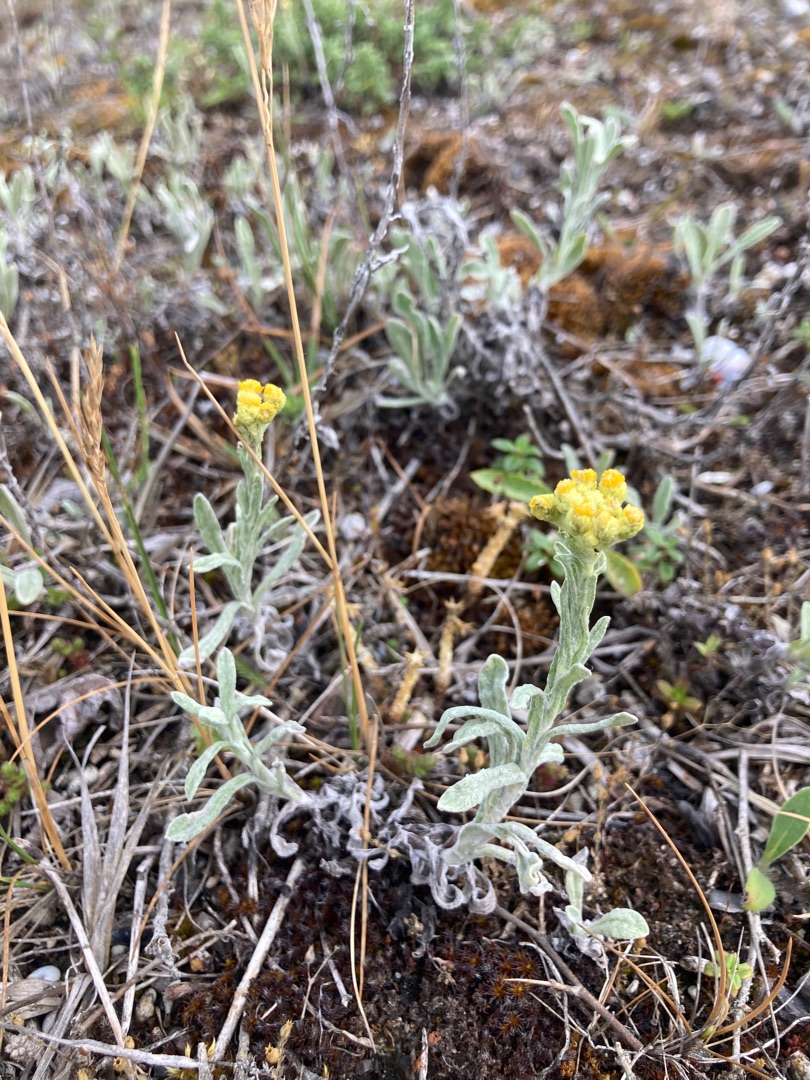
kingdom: Plantae
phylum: Tracheophyta
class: Magnoliopsida
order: Asterales
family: Asteraceae
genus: Helichrysum
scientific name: Helichrysum arenarium
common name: Gul evighedsblomst
